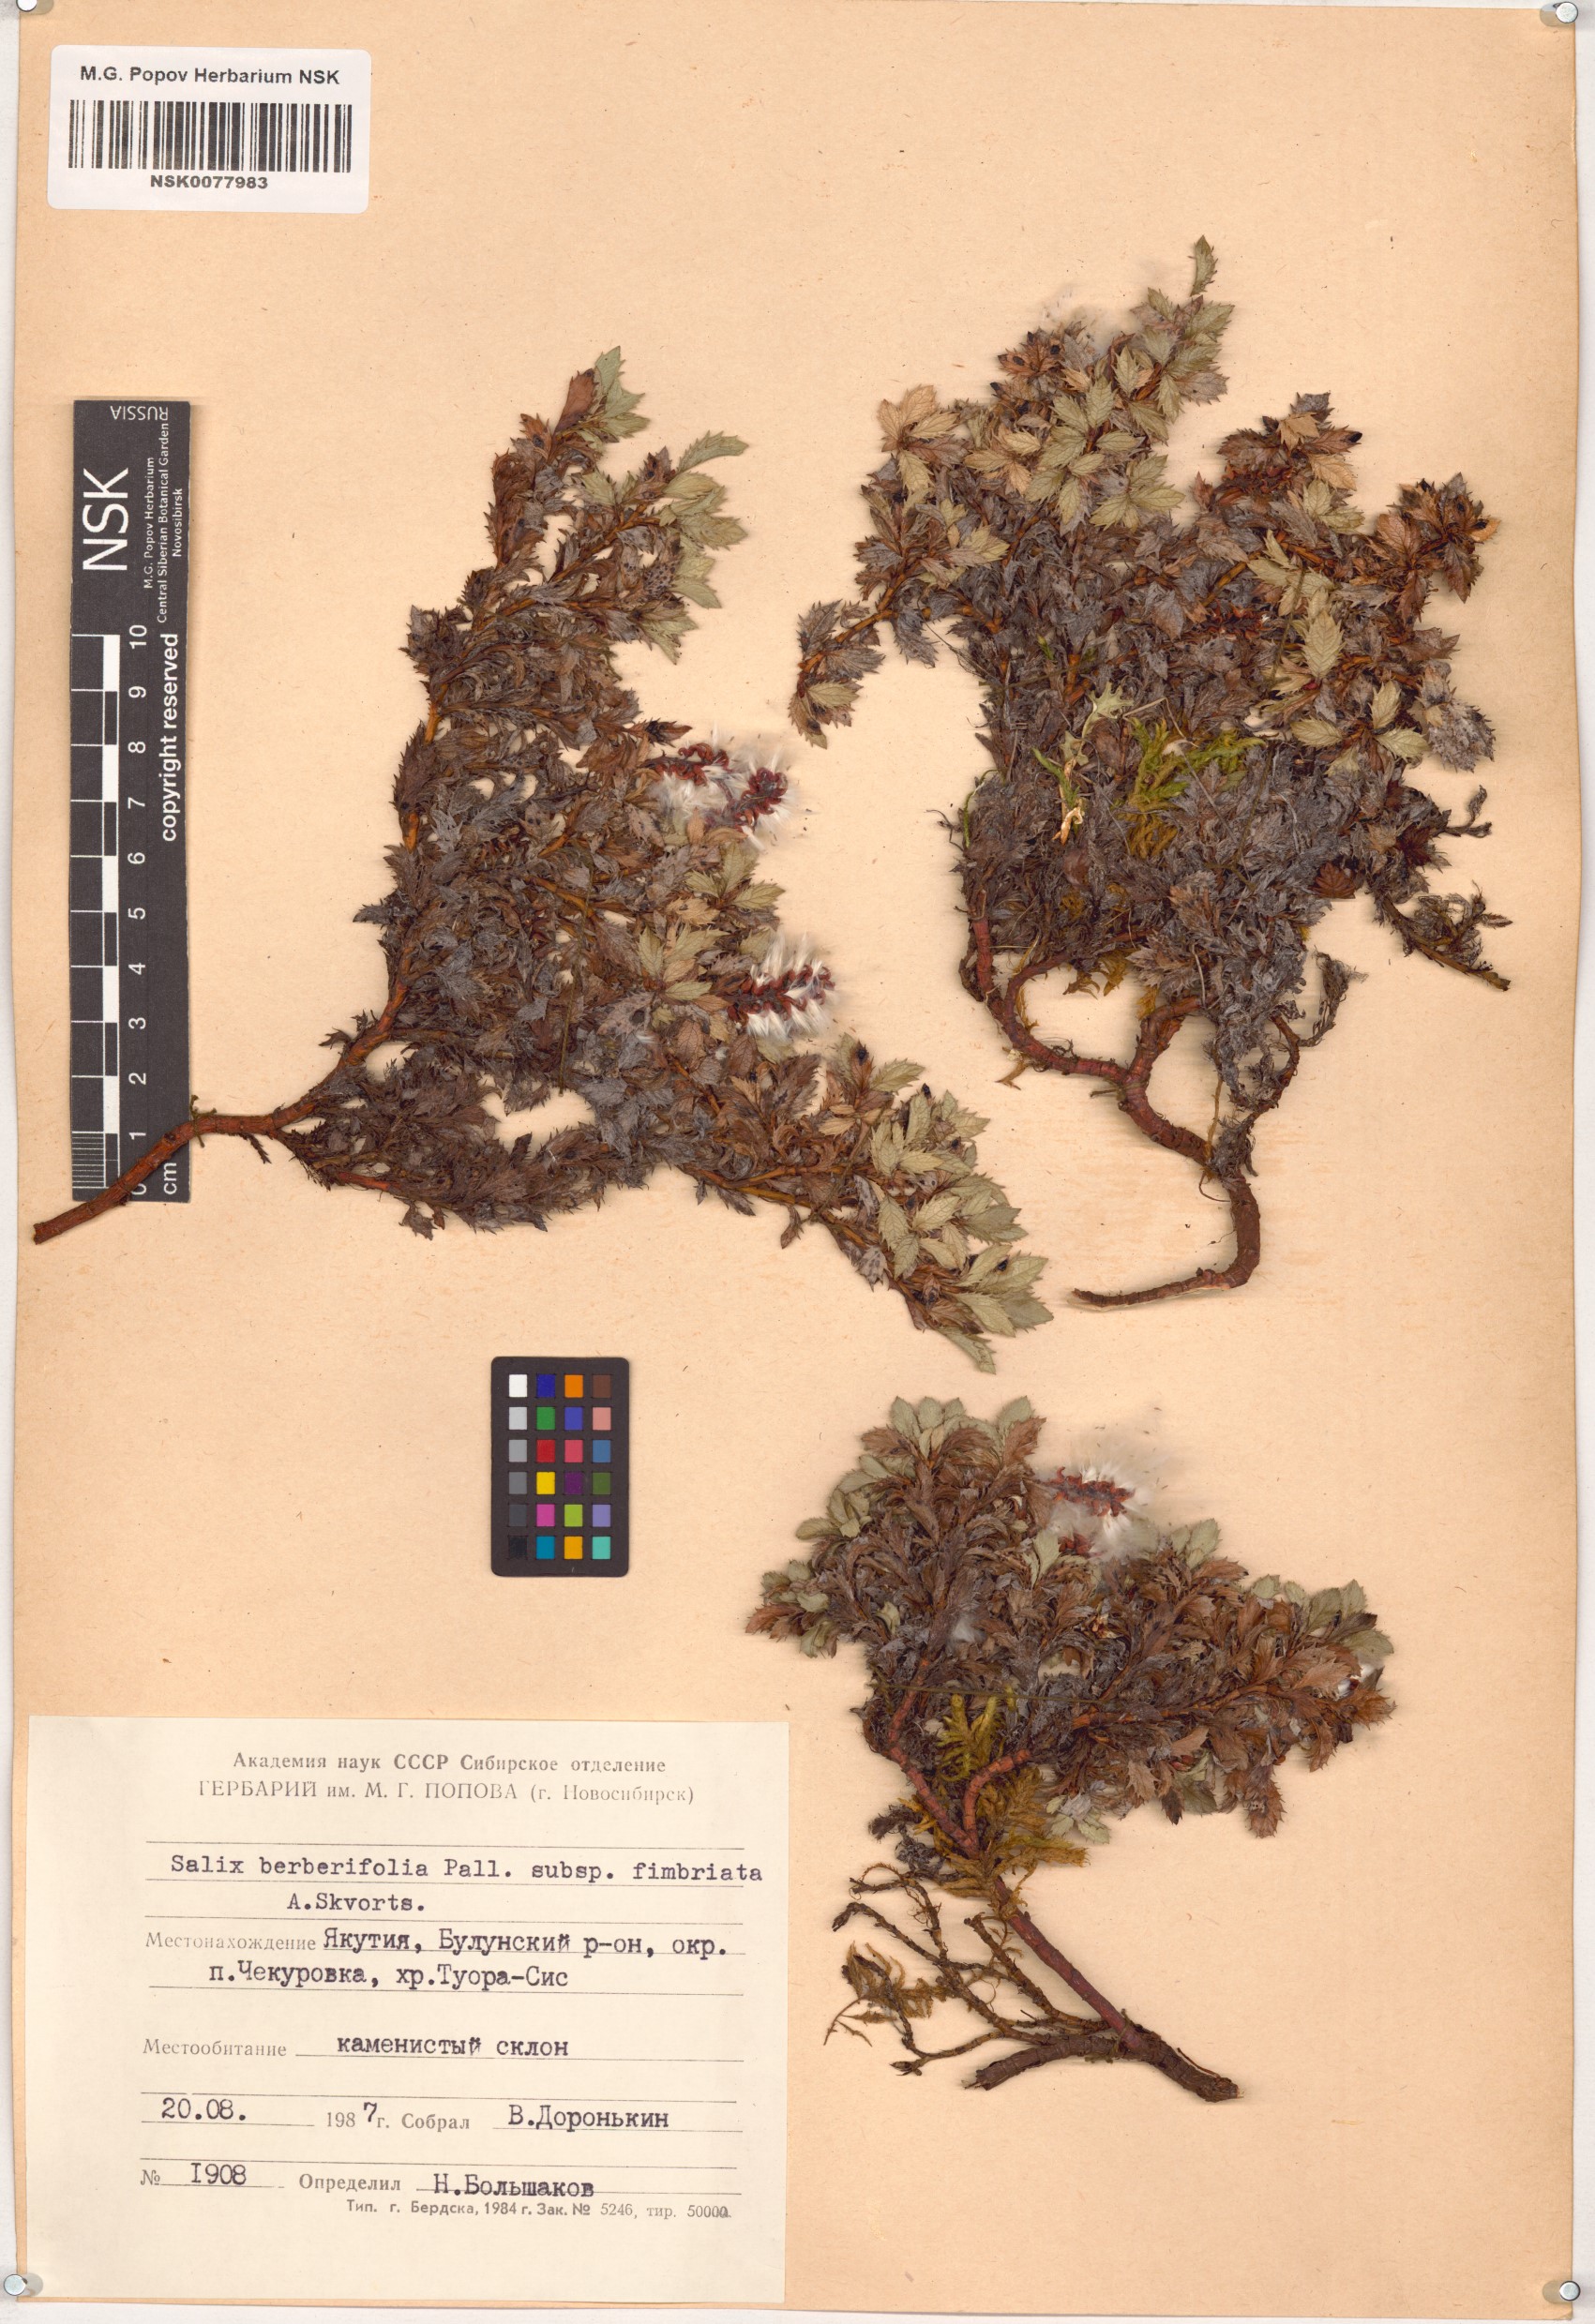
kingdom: Plantae
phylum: Tracheophyta
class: Magnoliopsida
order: Malpighiales
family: Salicaceae
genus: Salix
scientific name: Salix berberifolia
